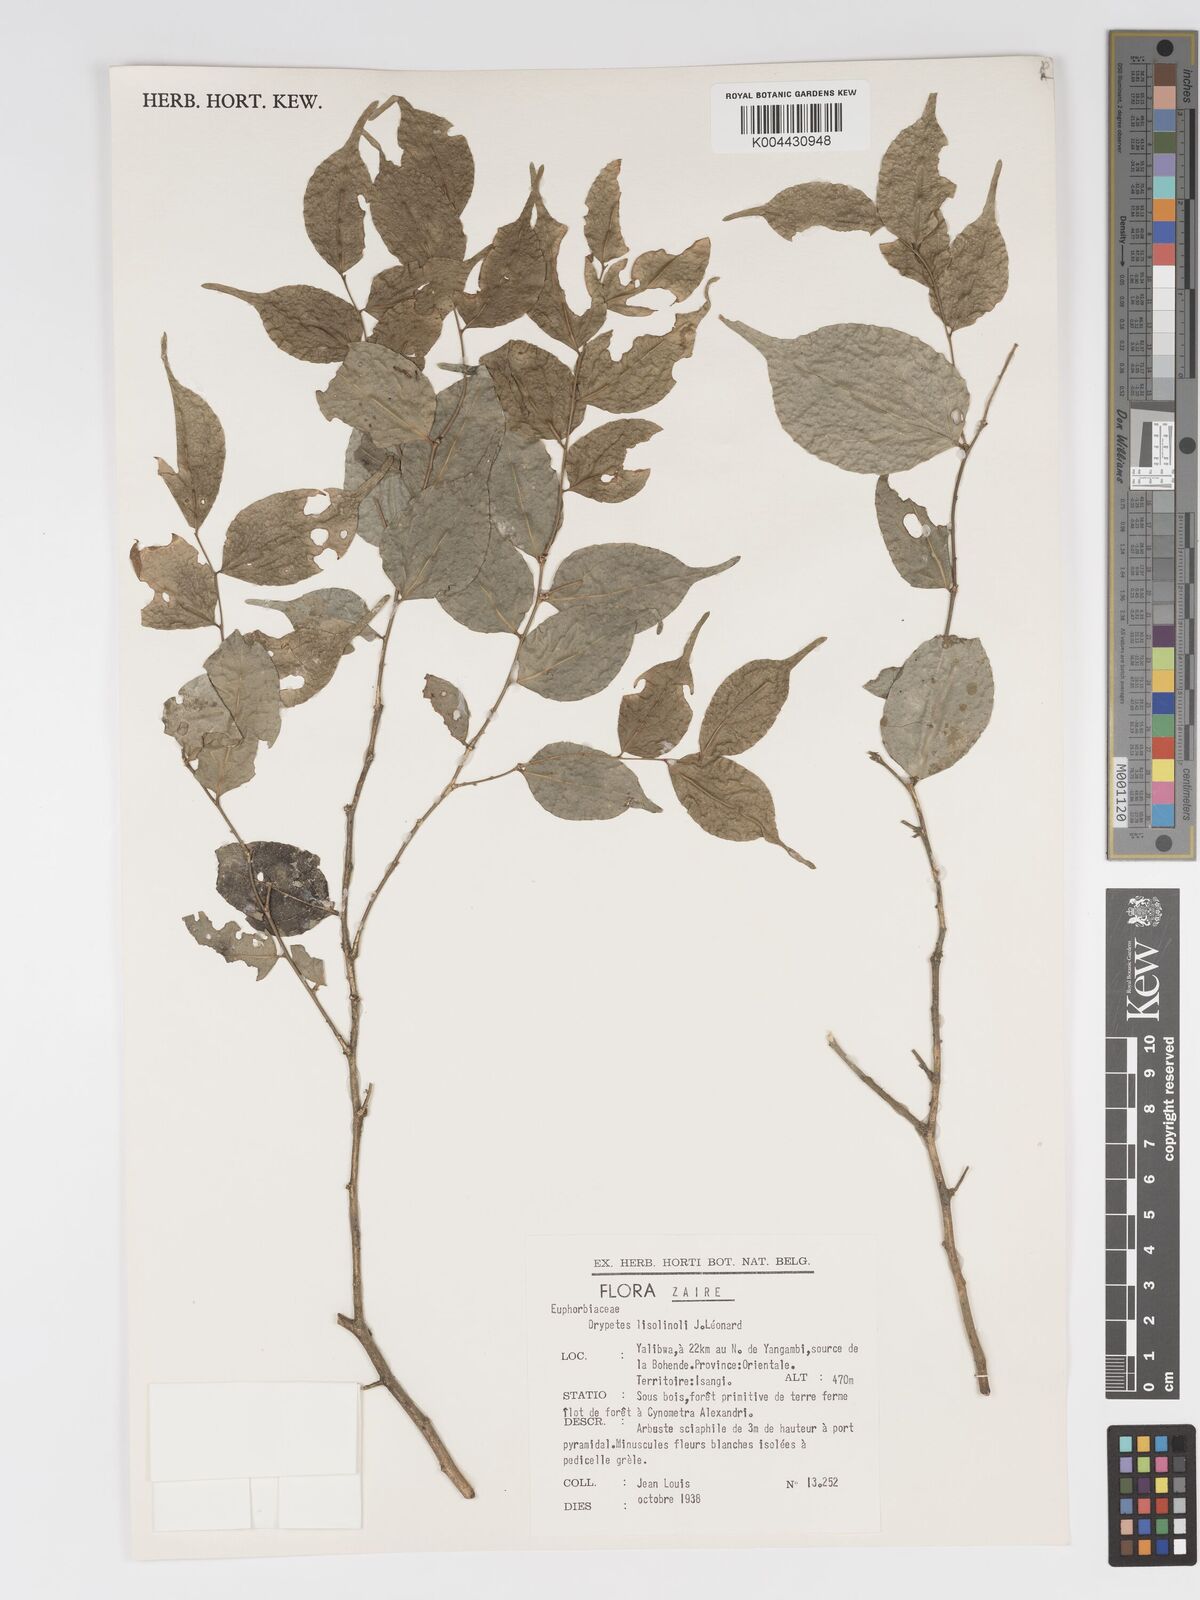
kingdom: Plantae
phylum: Tracheophyta
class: Magnoliopsida
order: Malpighiales
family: Putranjivaceae
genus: Drypetes
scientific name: Drypetes
